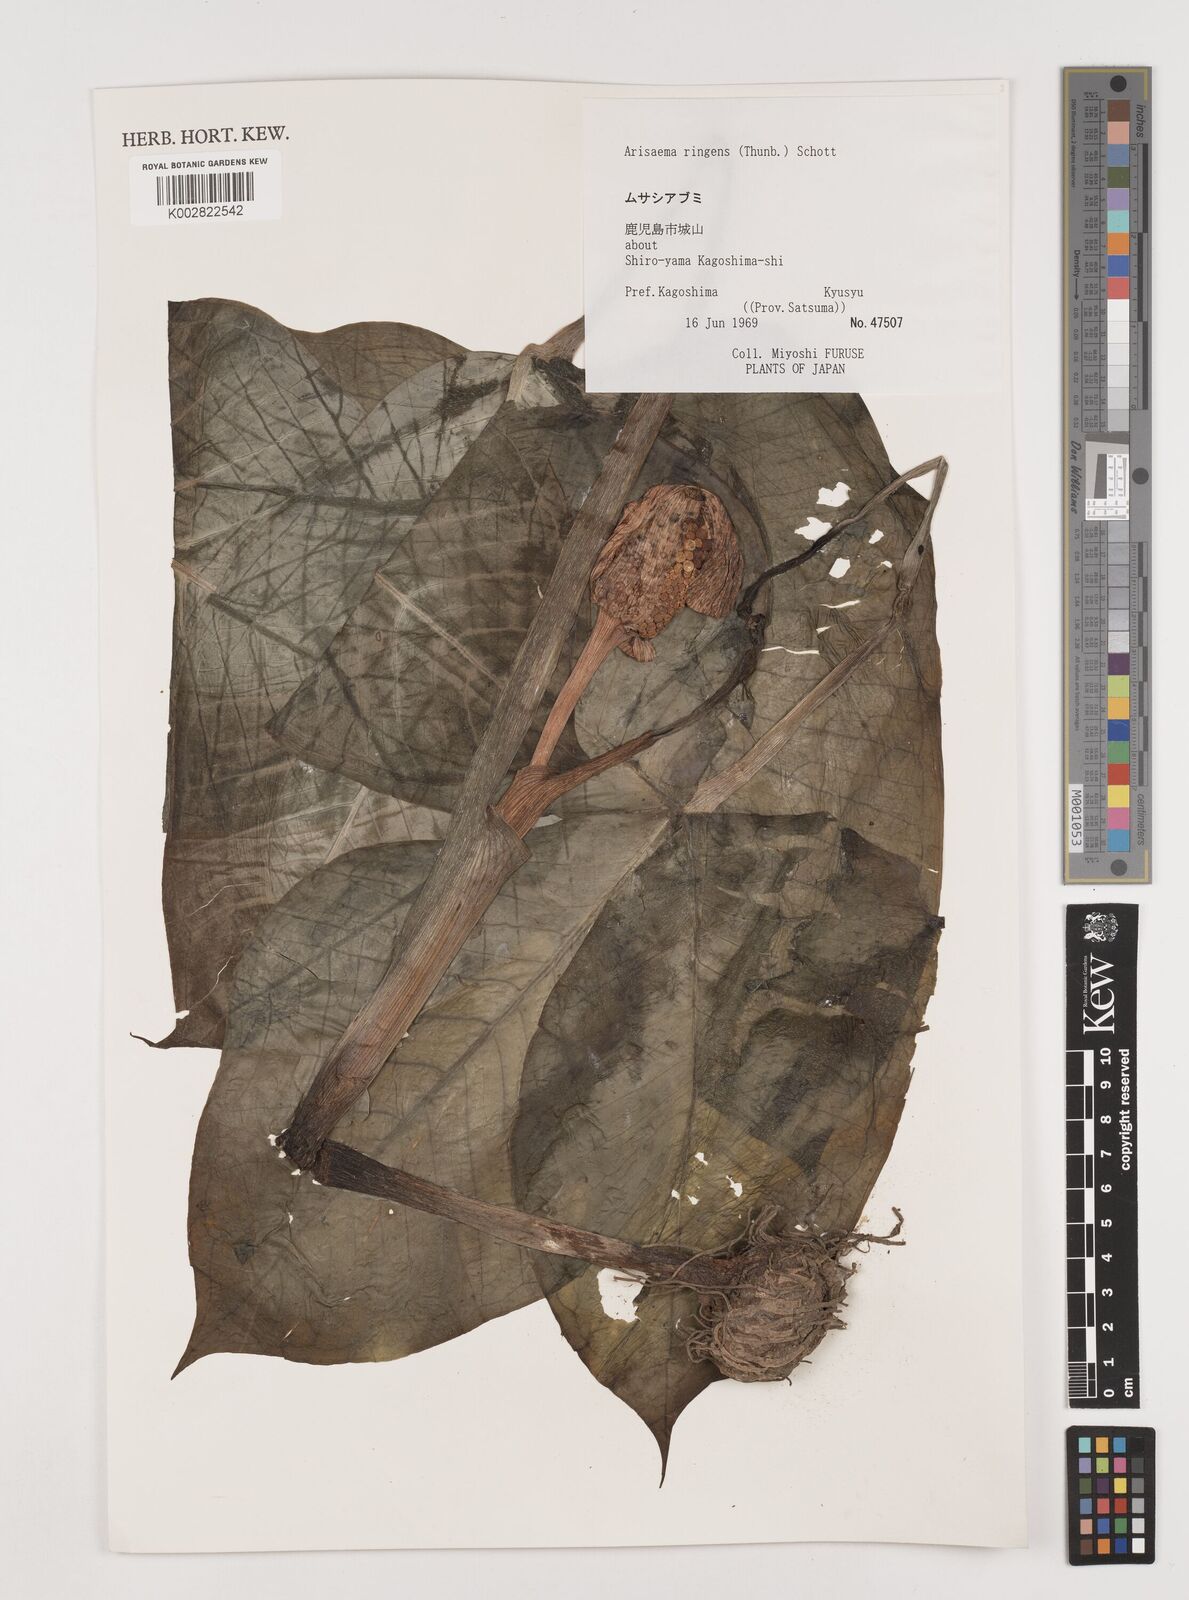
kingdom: Plantae
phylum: Tracheophyta
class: Liliopsida
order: Alismatales
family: Araceae
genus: Arisaema
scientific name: Arisaema ringens
